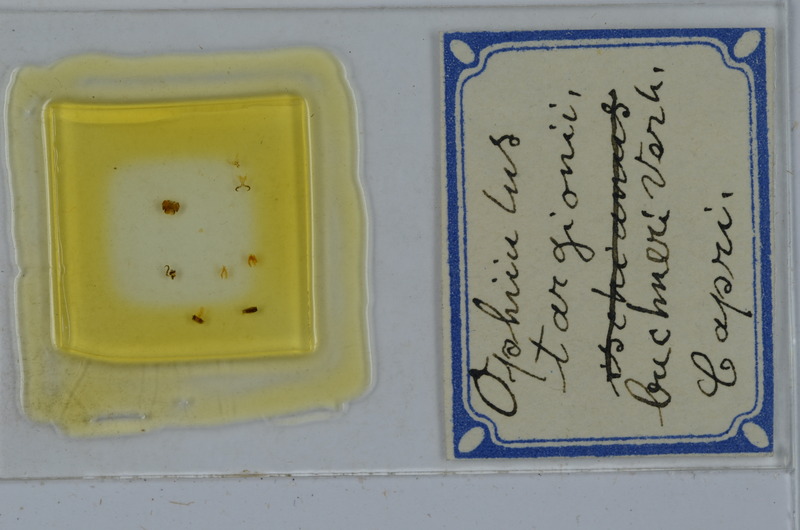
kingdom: Animalia
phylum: Arthropoda
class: Diplopoda
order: Julida
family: Julidae
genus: Ophyiulus
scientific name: Ophyiulus targionii
